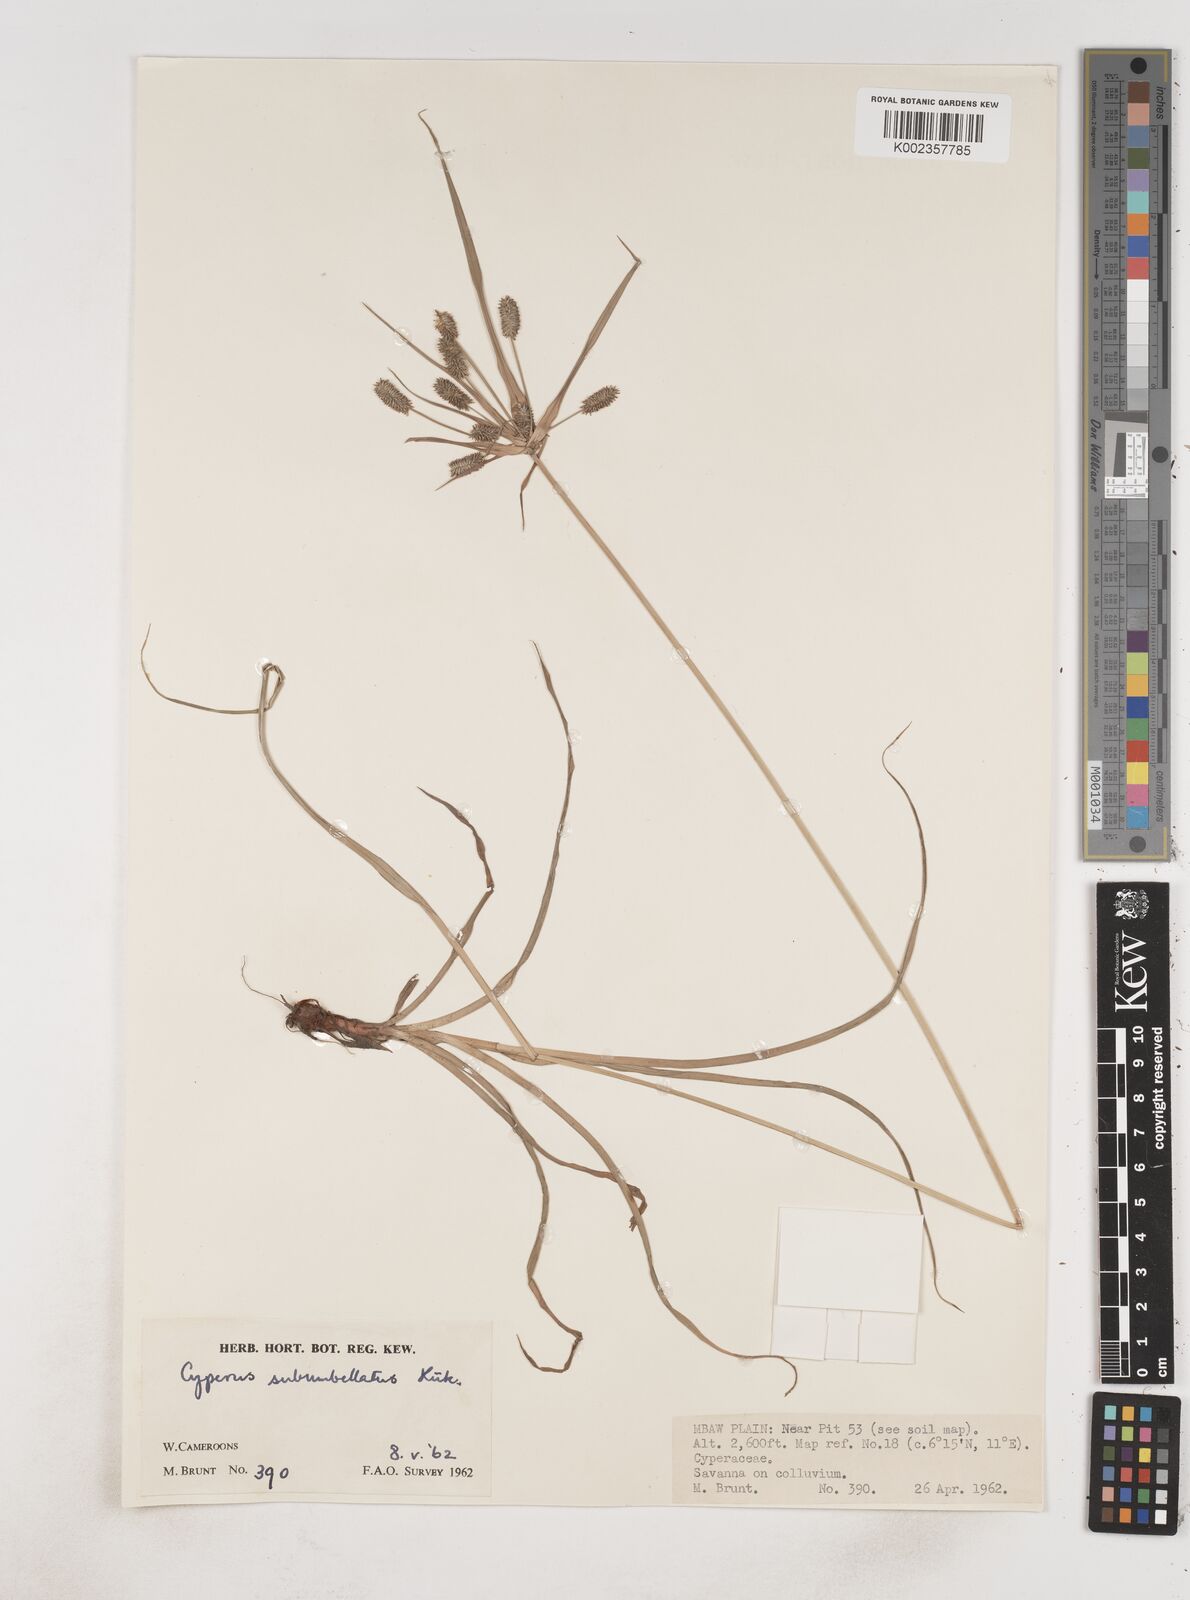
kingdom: Plantae
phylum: Tracheophyta
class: Liliopsida
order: Poales
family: Cyperaceae
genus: Cyperus
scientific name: Cyperus sublimis
